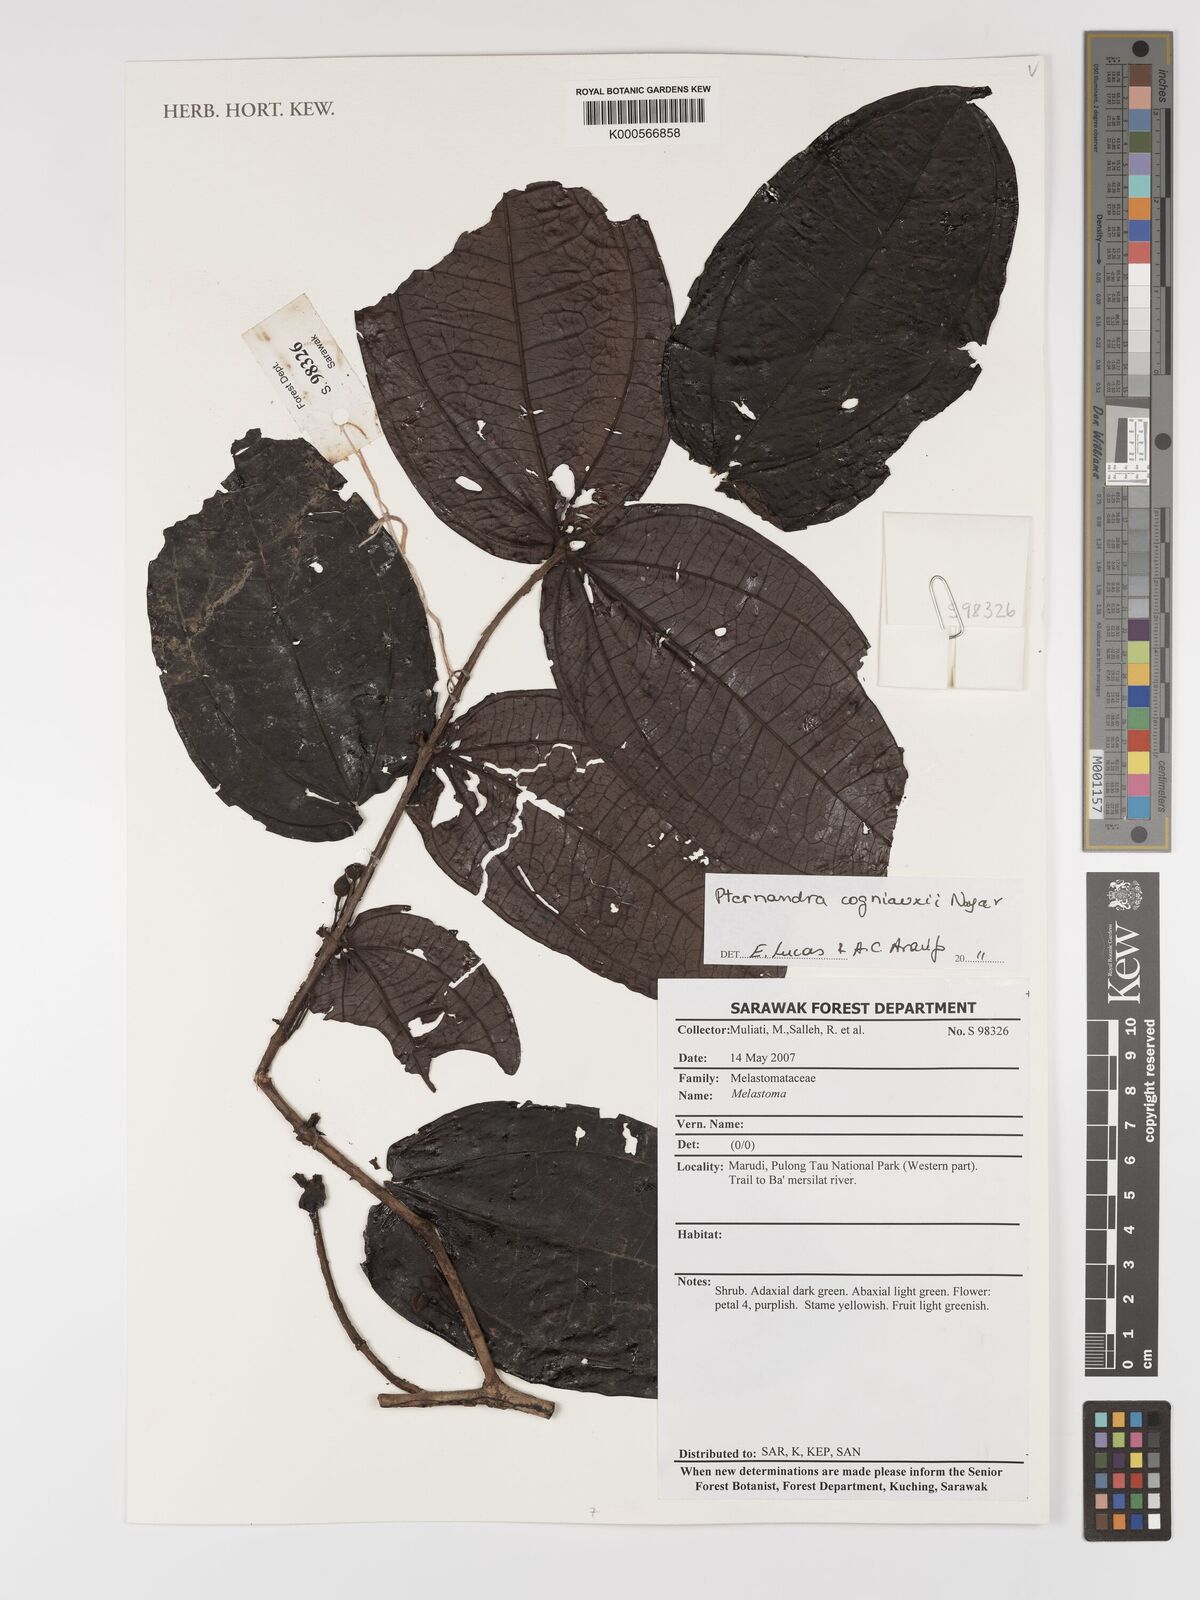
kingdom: Plantae
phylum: Tracheophyta
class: Magnoliopsida
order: Myrtales
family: Melastomataceae
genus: Pternandra
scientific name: Pternandra cogniauxii
